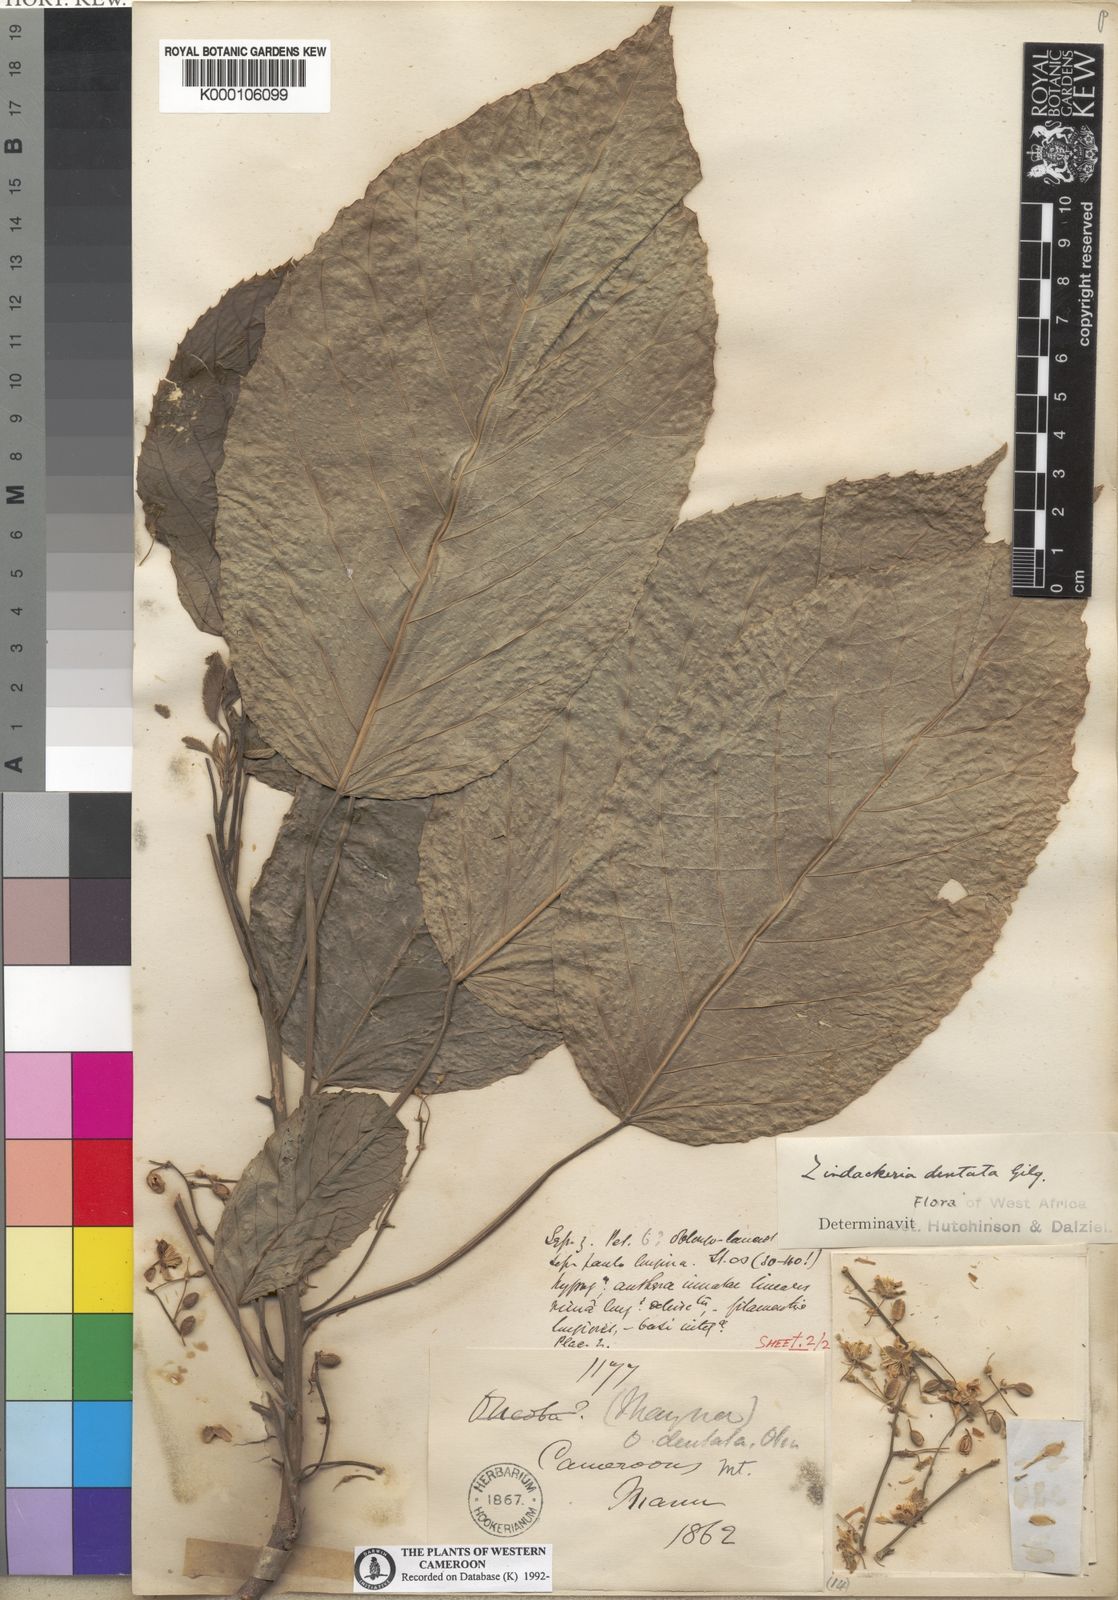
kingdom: Plantae
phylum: Tracheophyta
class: Magnoliopsida
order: Malpighiales
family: Achariaceae
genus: Lindackeria
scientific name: Lindackeria dentata
